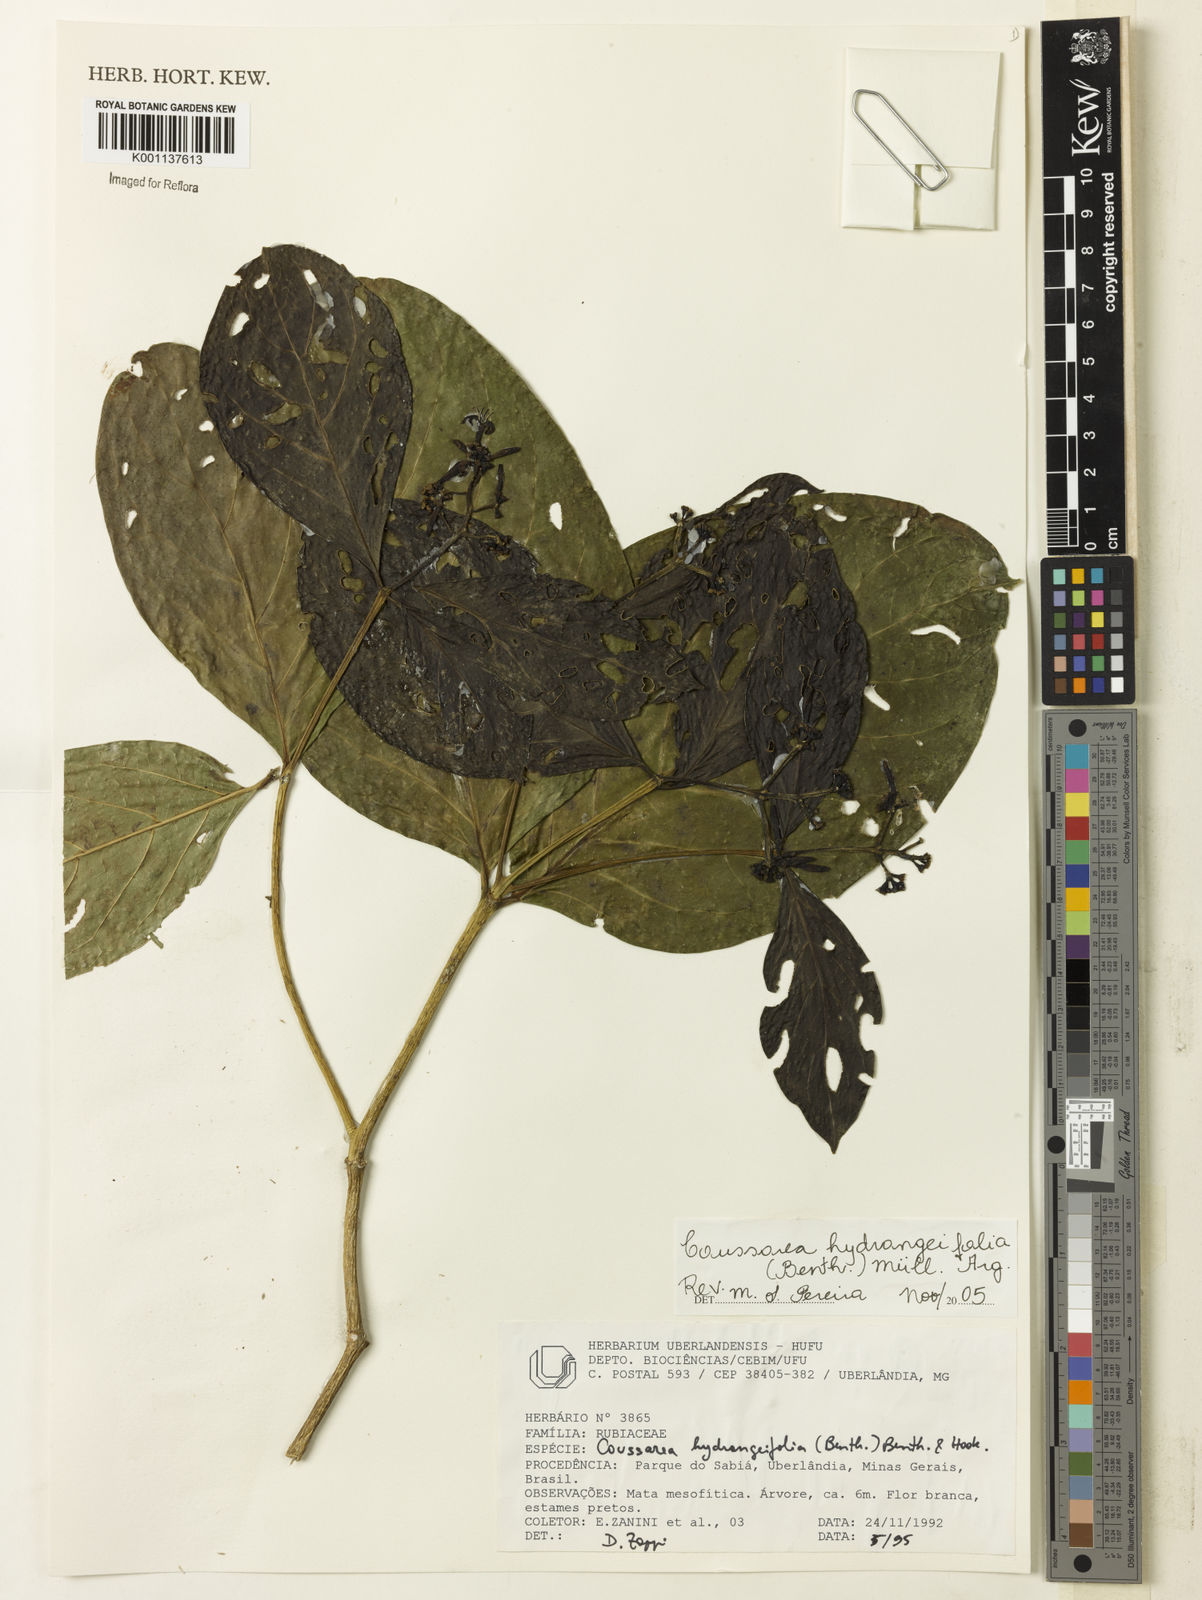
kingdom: Plantae
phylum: Tracheophyta
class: Magnoliopsida
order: Gentianales
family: Rubiaceae
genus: Coussarea
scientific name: Coussarea
